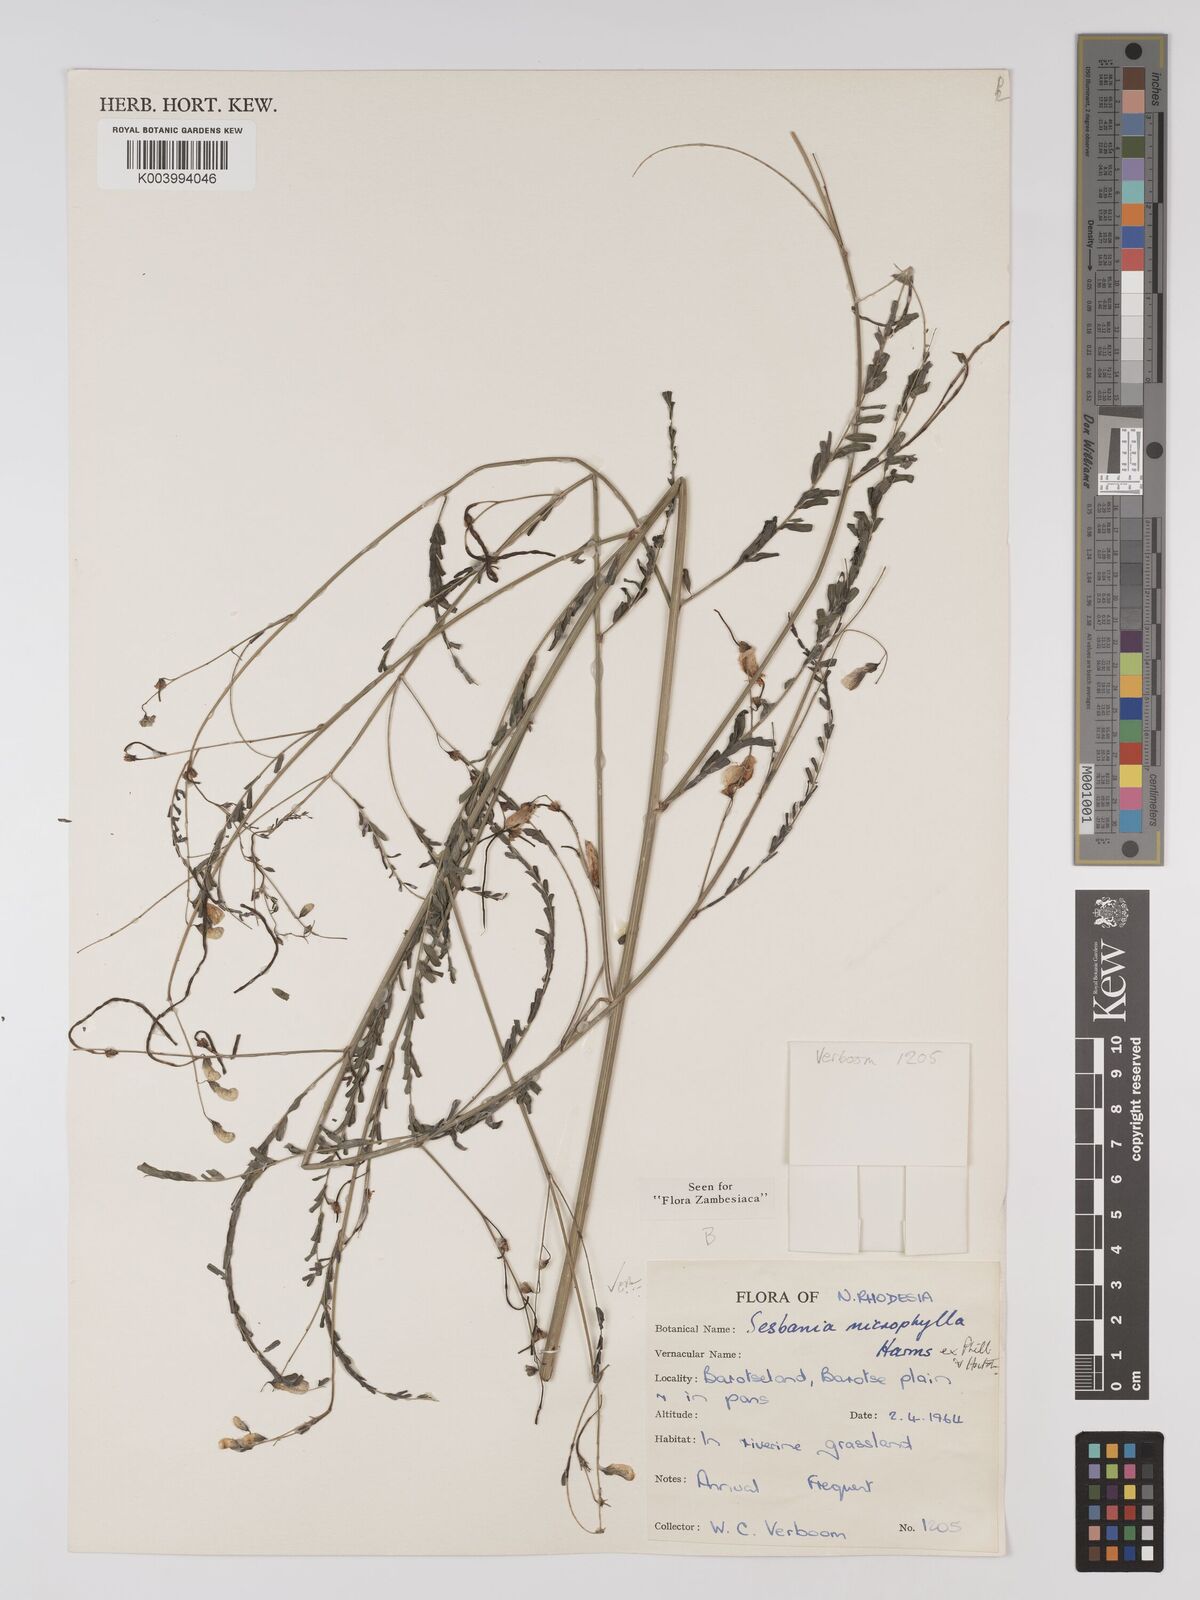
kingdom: Plantae
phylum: Tracheophyta
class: Magnoliopsida
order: Fabales
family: Fabaceae
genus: Sesbania
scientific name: Sesbania microphylla
